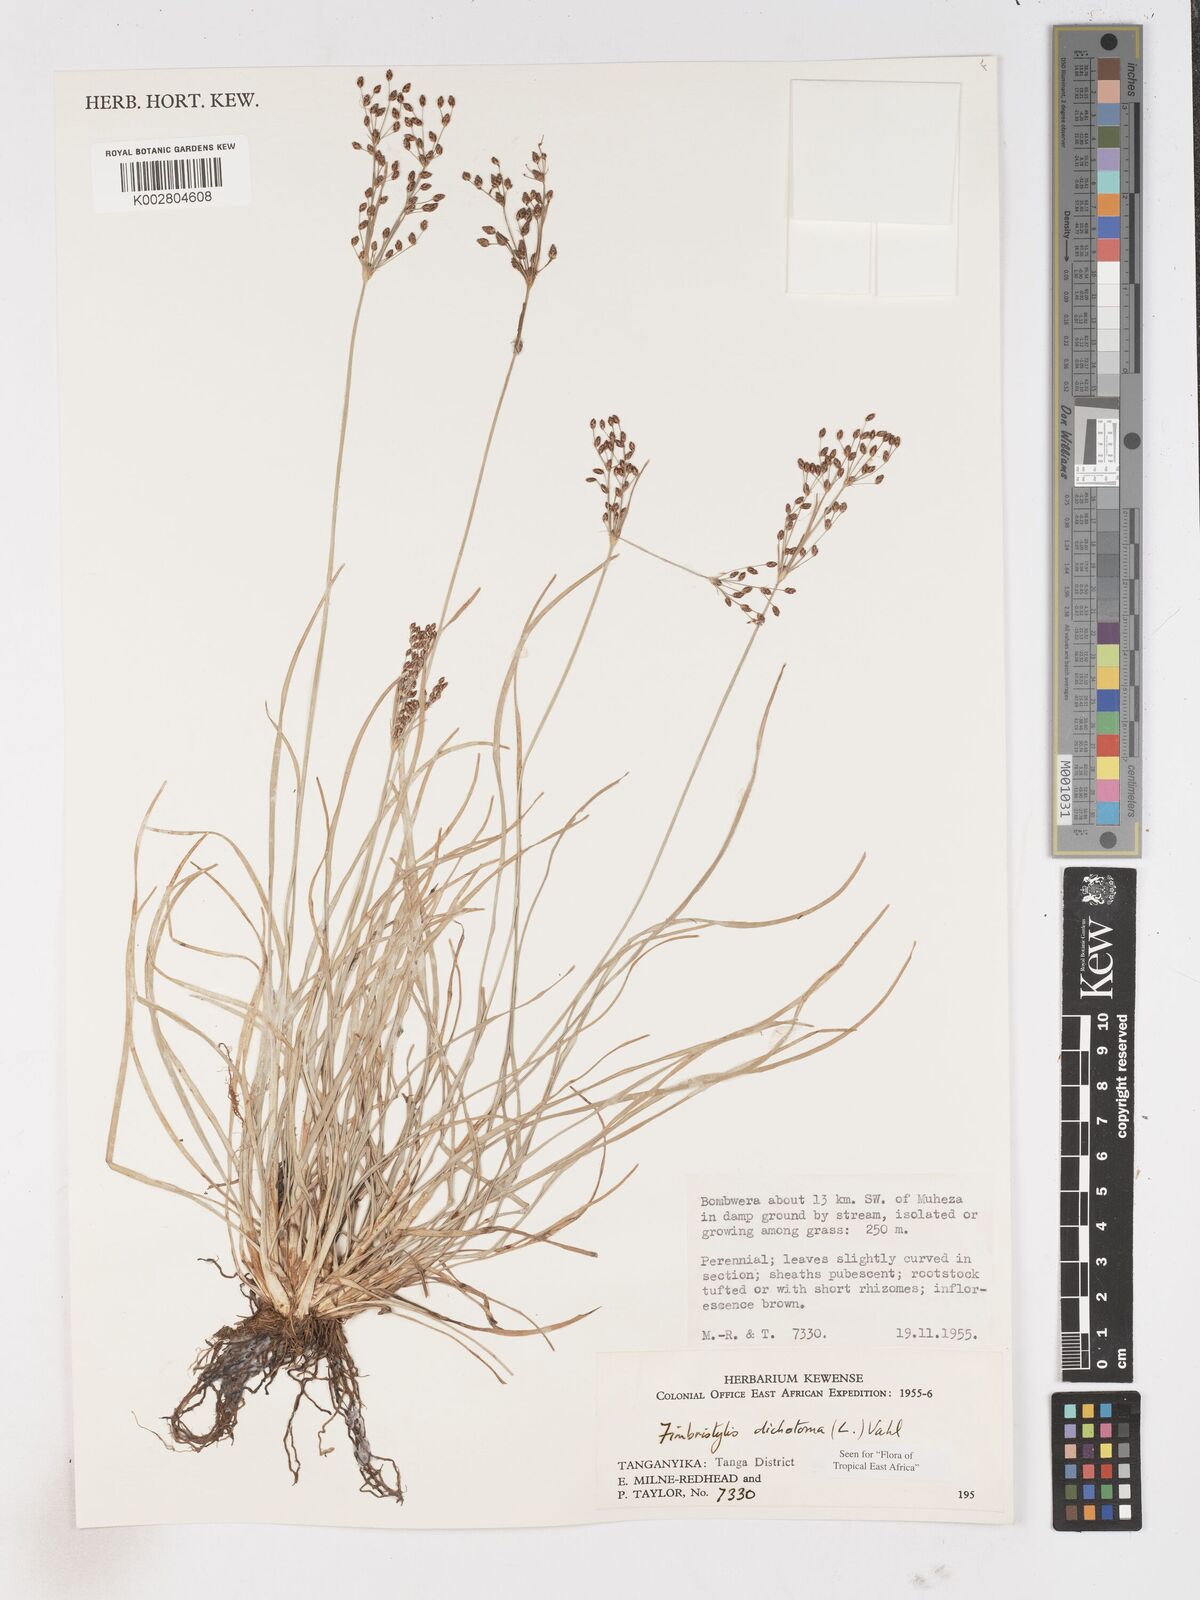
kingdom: Plantae
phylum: Tracheophyta
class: Liliopsida
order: Poales
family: Cyperaceae
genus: Fimbristylis
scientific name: Fimbristylis dichotoma
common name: Forked fimbry
